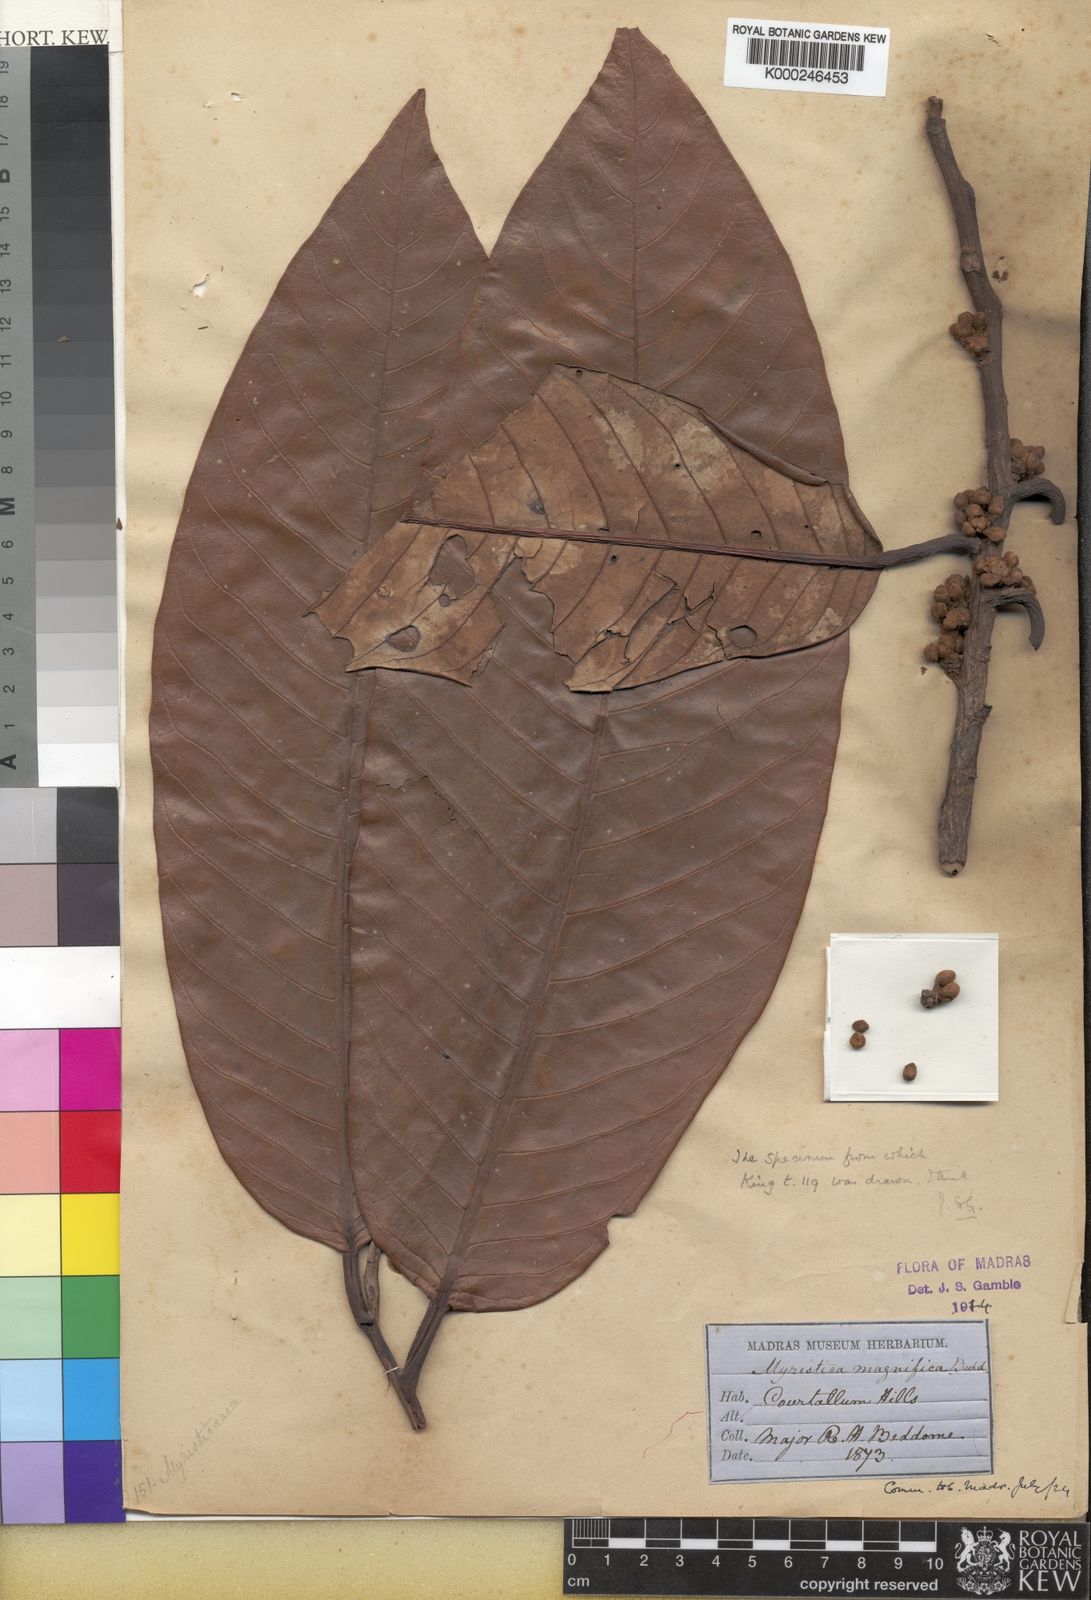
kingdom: Plantae
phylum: Tracheophyta
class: Magnoliopsida
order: Magnoliales
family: Myristicaceae
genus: Myristica
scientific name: Myristica fatua
